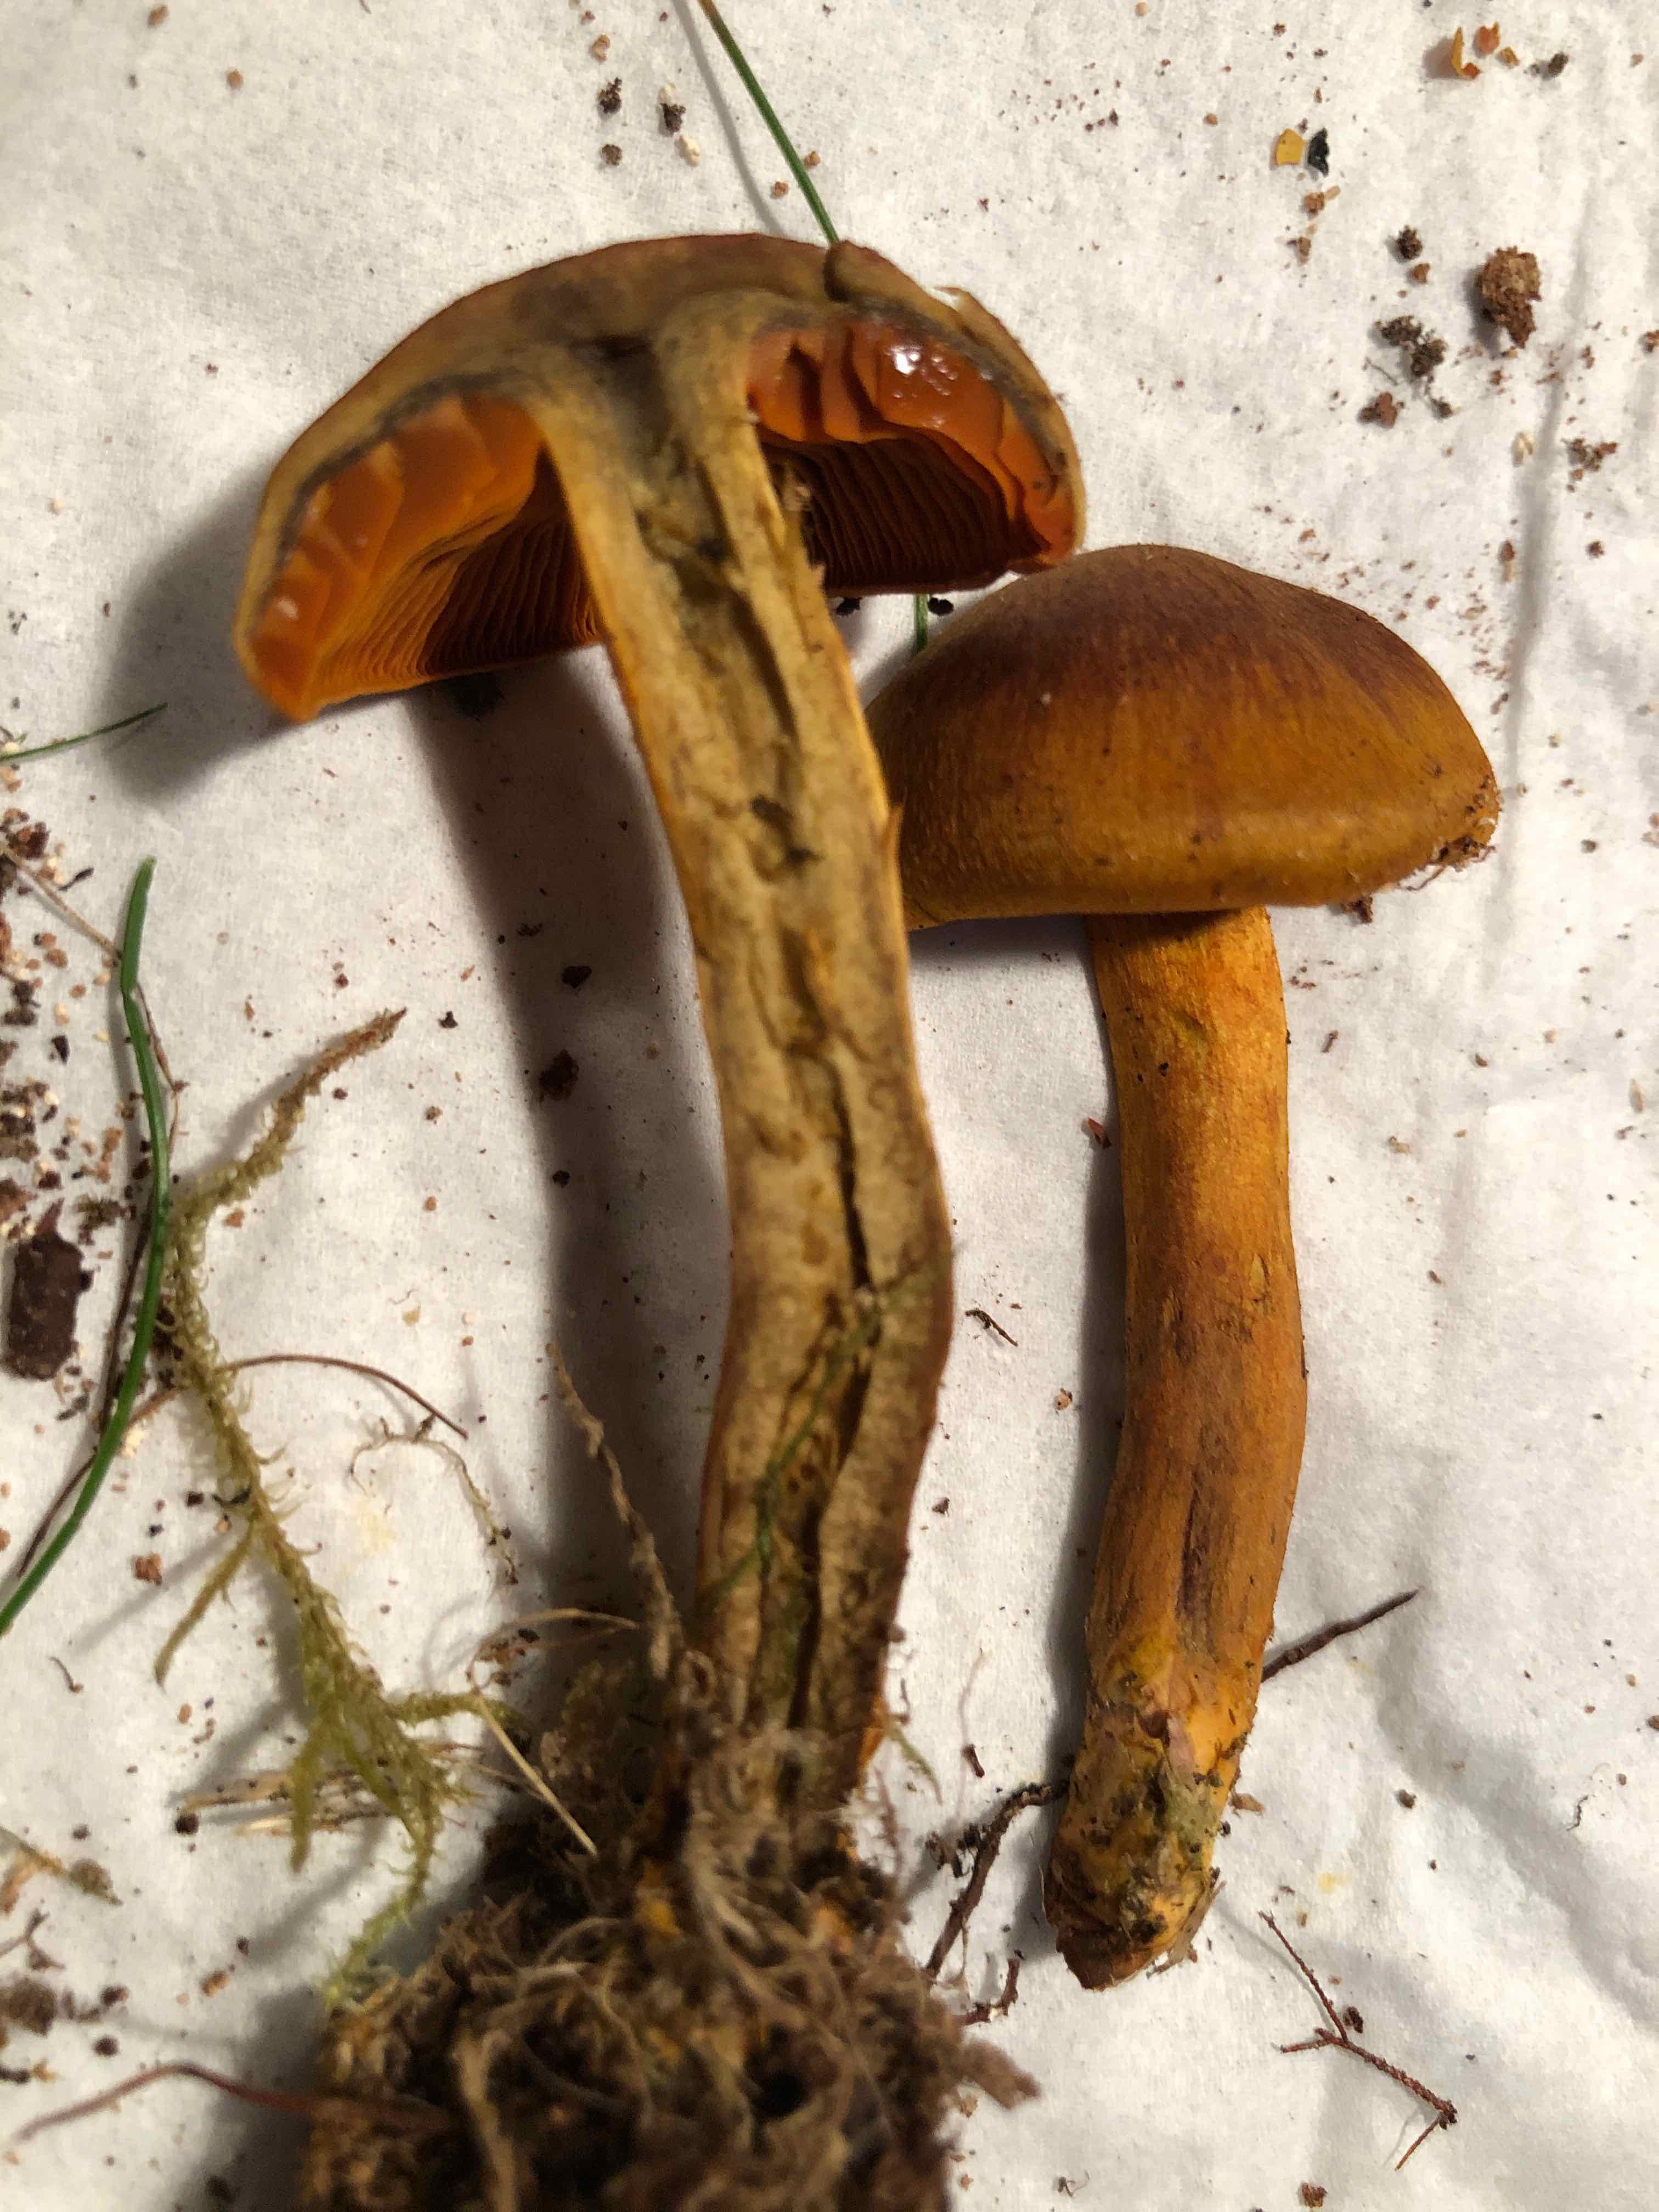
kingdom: Fungi
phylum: Basidiomycota
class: Agaricomycetes
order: Agaricales
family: Cortinariaceae
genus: Cortinarius
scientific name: Cortinarius malicorius
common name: grønkødet slørhat
